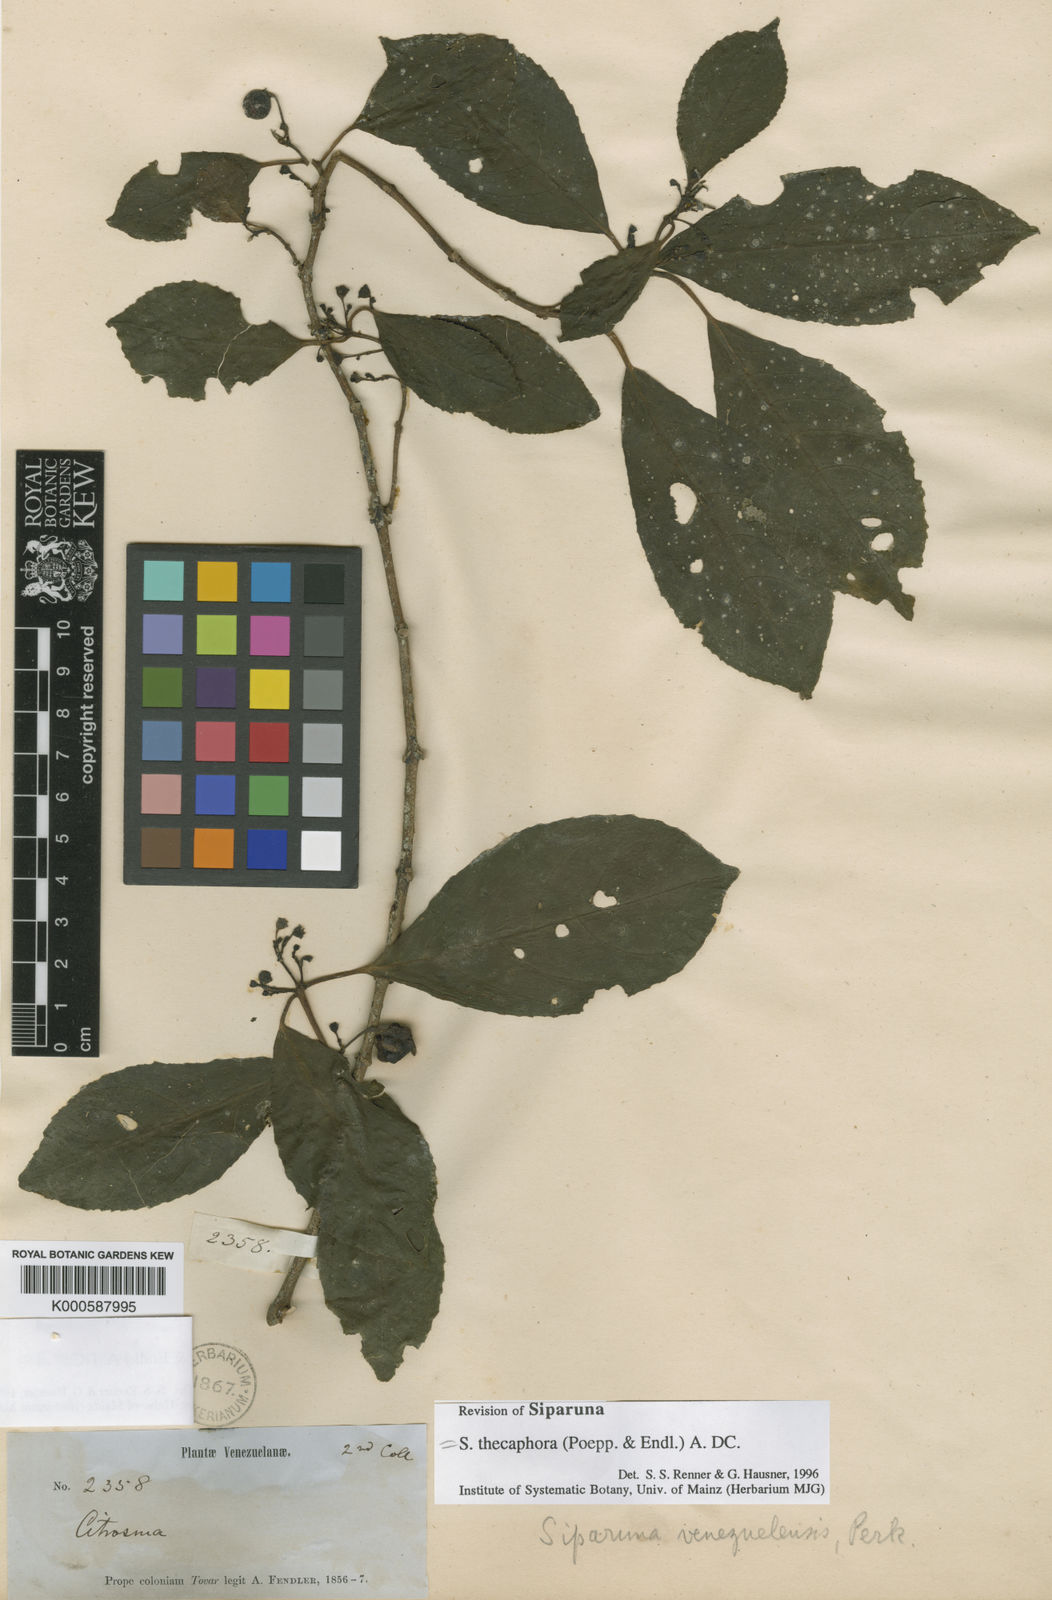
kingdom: Plantae
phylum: Tracheophyta
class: Magnoliopsida
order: Laurales
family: Siparunaceae
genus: Siparuna
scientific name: Siparuna thecaphora
